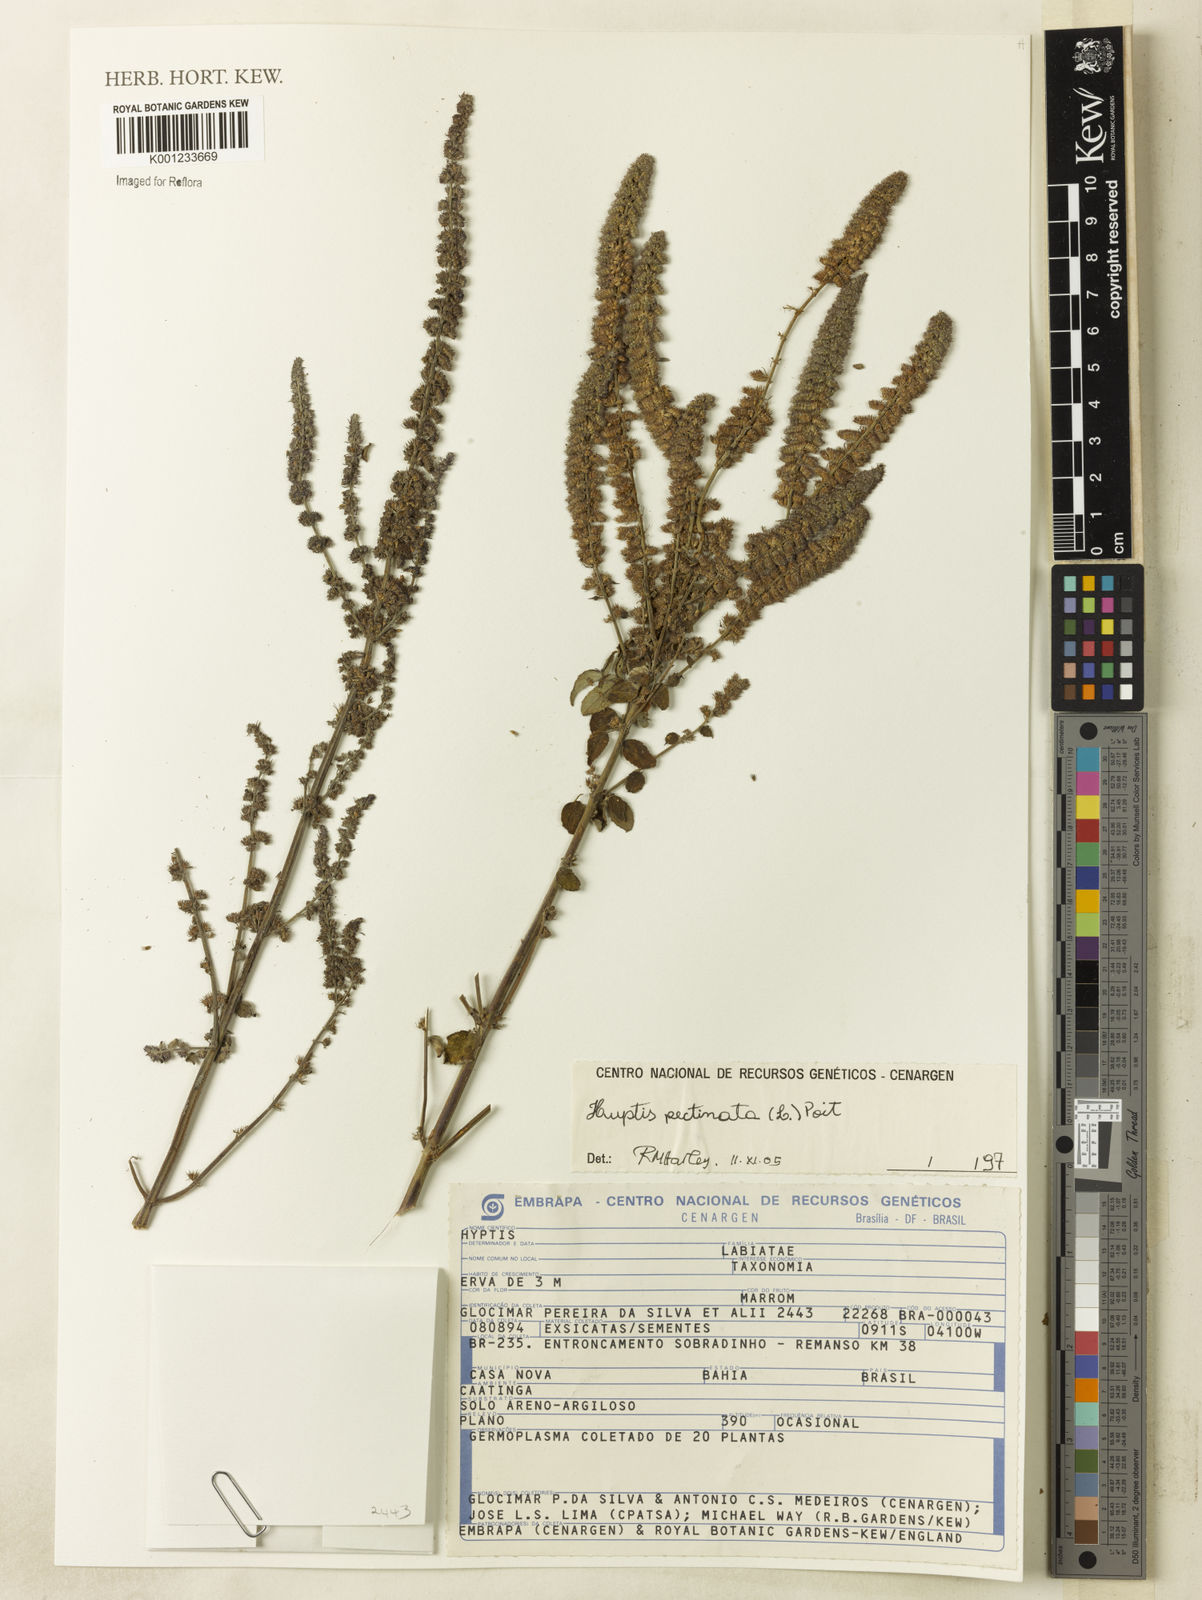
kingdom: Plantae
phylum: Tracheophyta
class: Magnoliopsida
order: Lamiales
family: Lamiaceae
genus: Mesosphaerum
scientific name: Mesosphaerum pectinatum
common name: Comb hyptis
